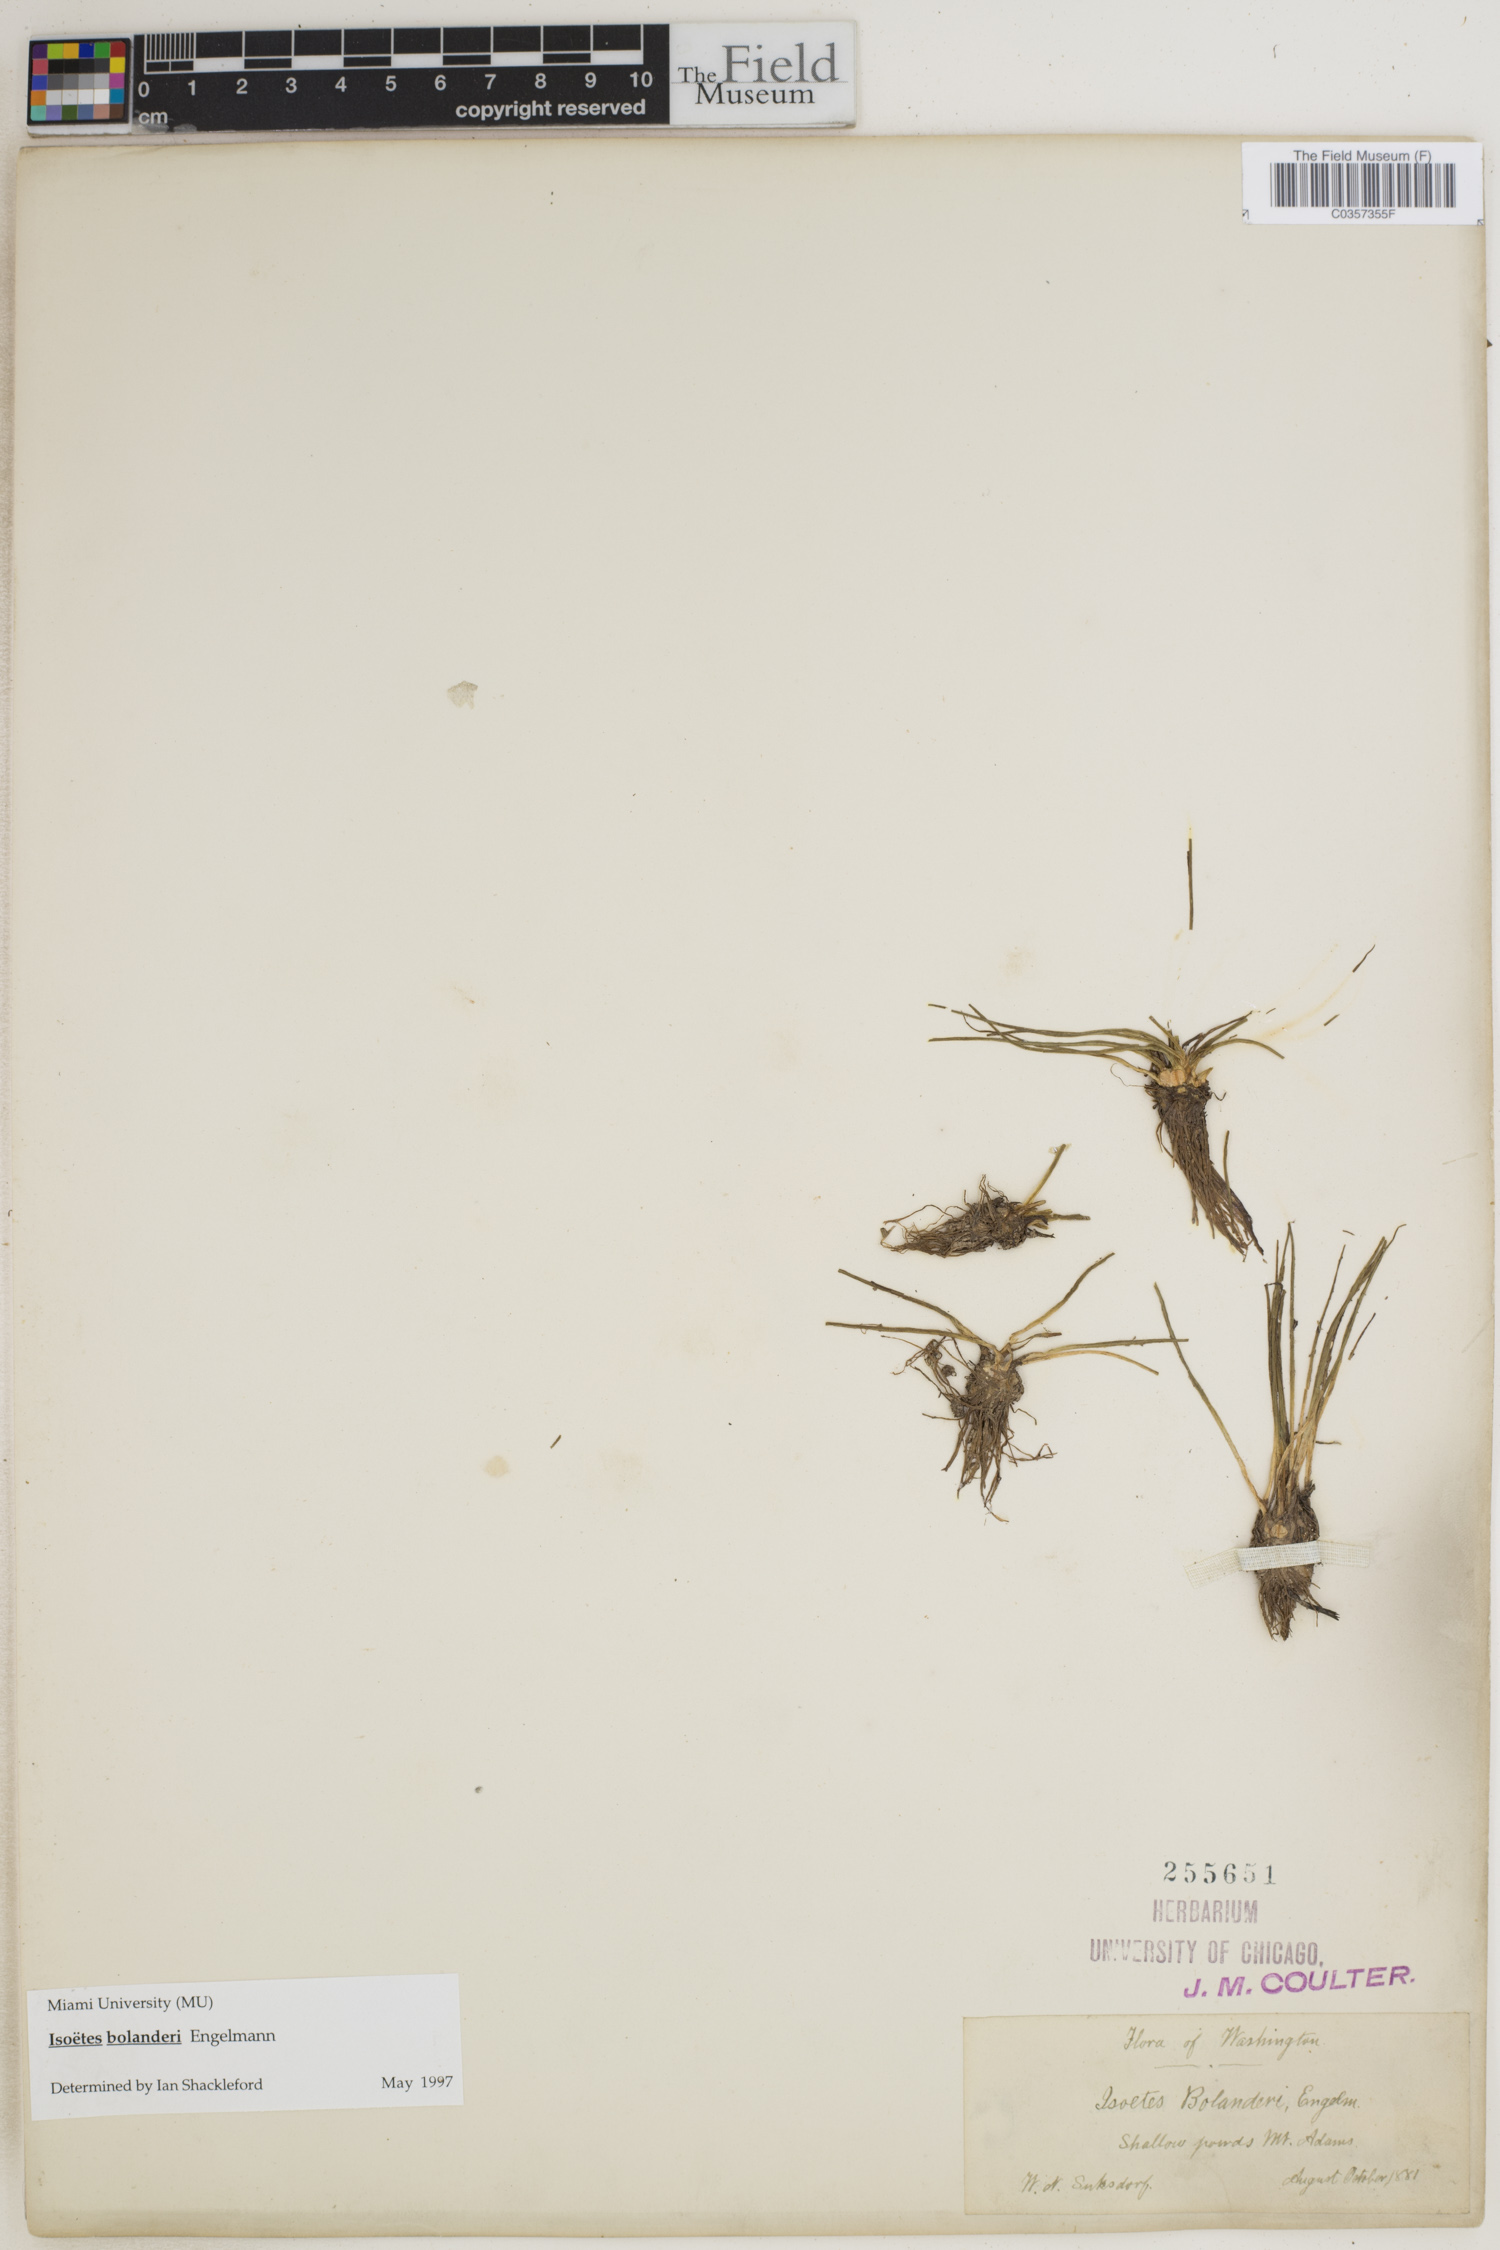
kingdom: Plantae
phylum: Tracheophyta
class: Lycopodiopsida
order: Isoetales
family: Isoetaceae
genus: Isoetes
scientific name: Isoetes bolanderi
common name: Bolander's quillwort
